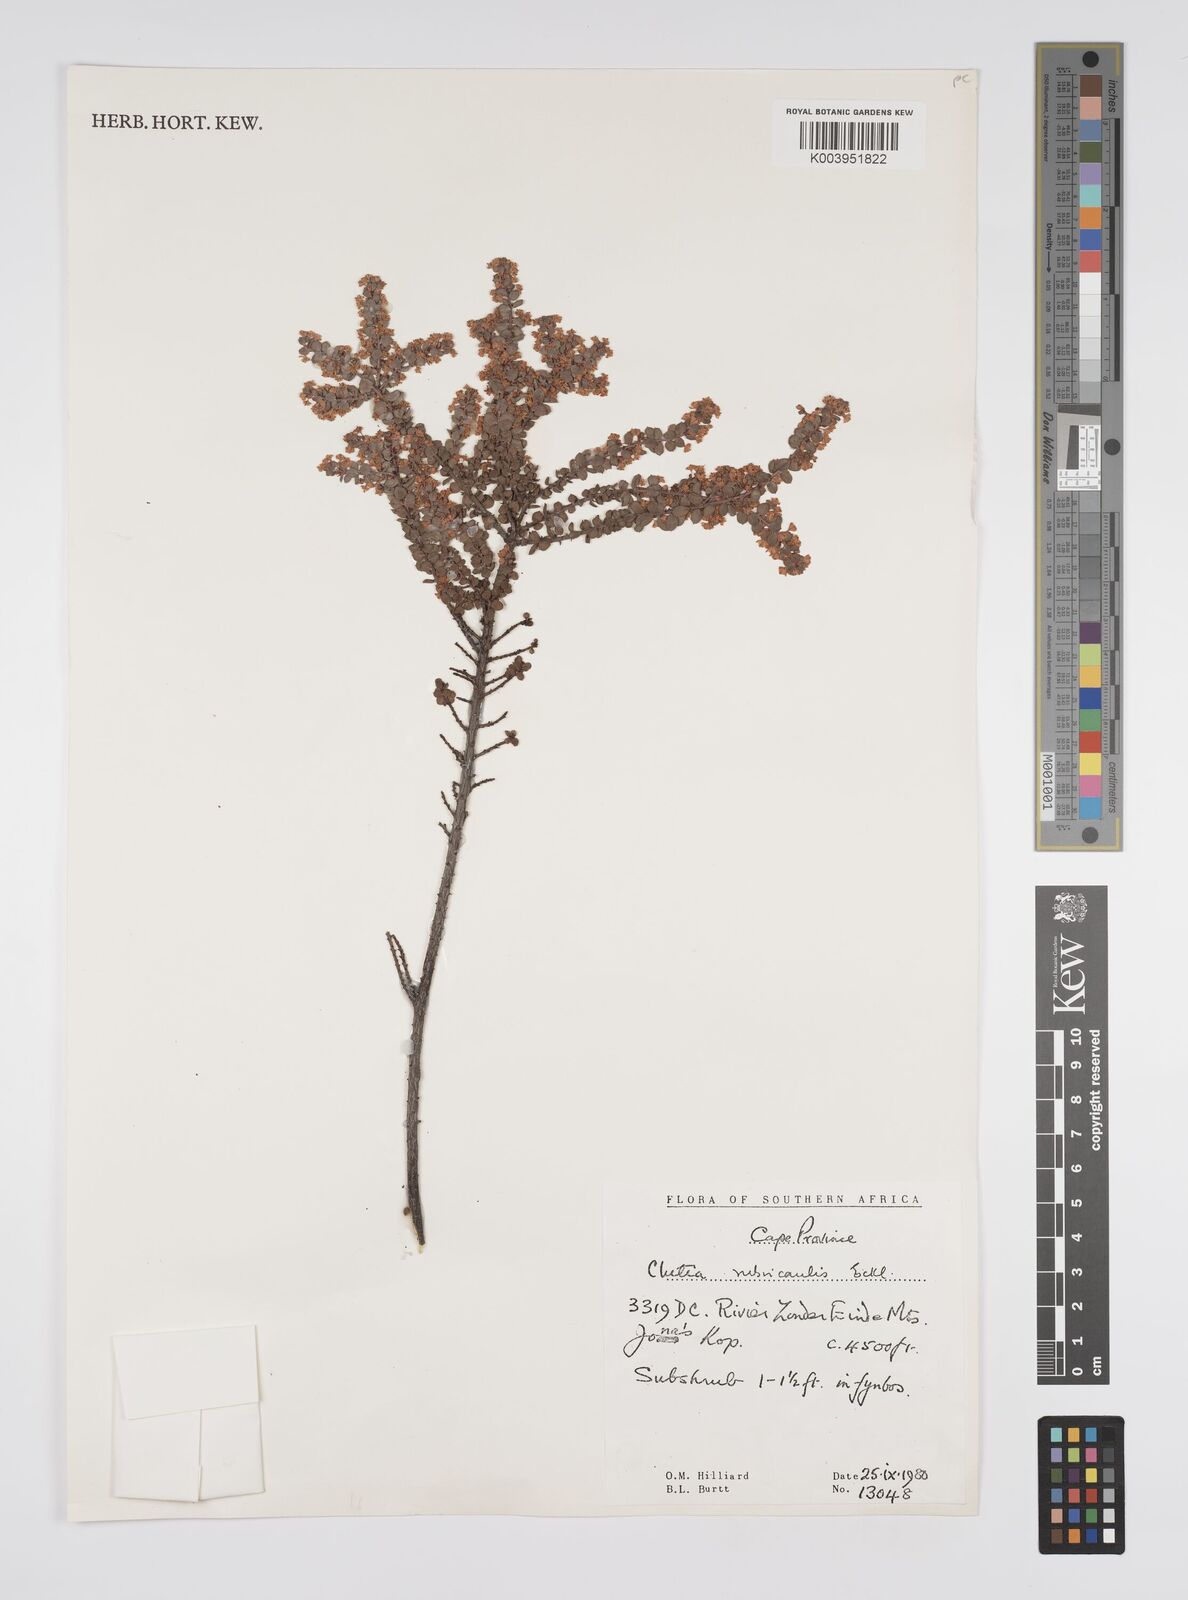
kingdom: Plantae
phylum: Tracheophyta
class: Magnoliopsida
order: Malpighiales
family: Peraceae
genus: Clutia
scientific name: Clutia rubricaulis
